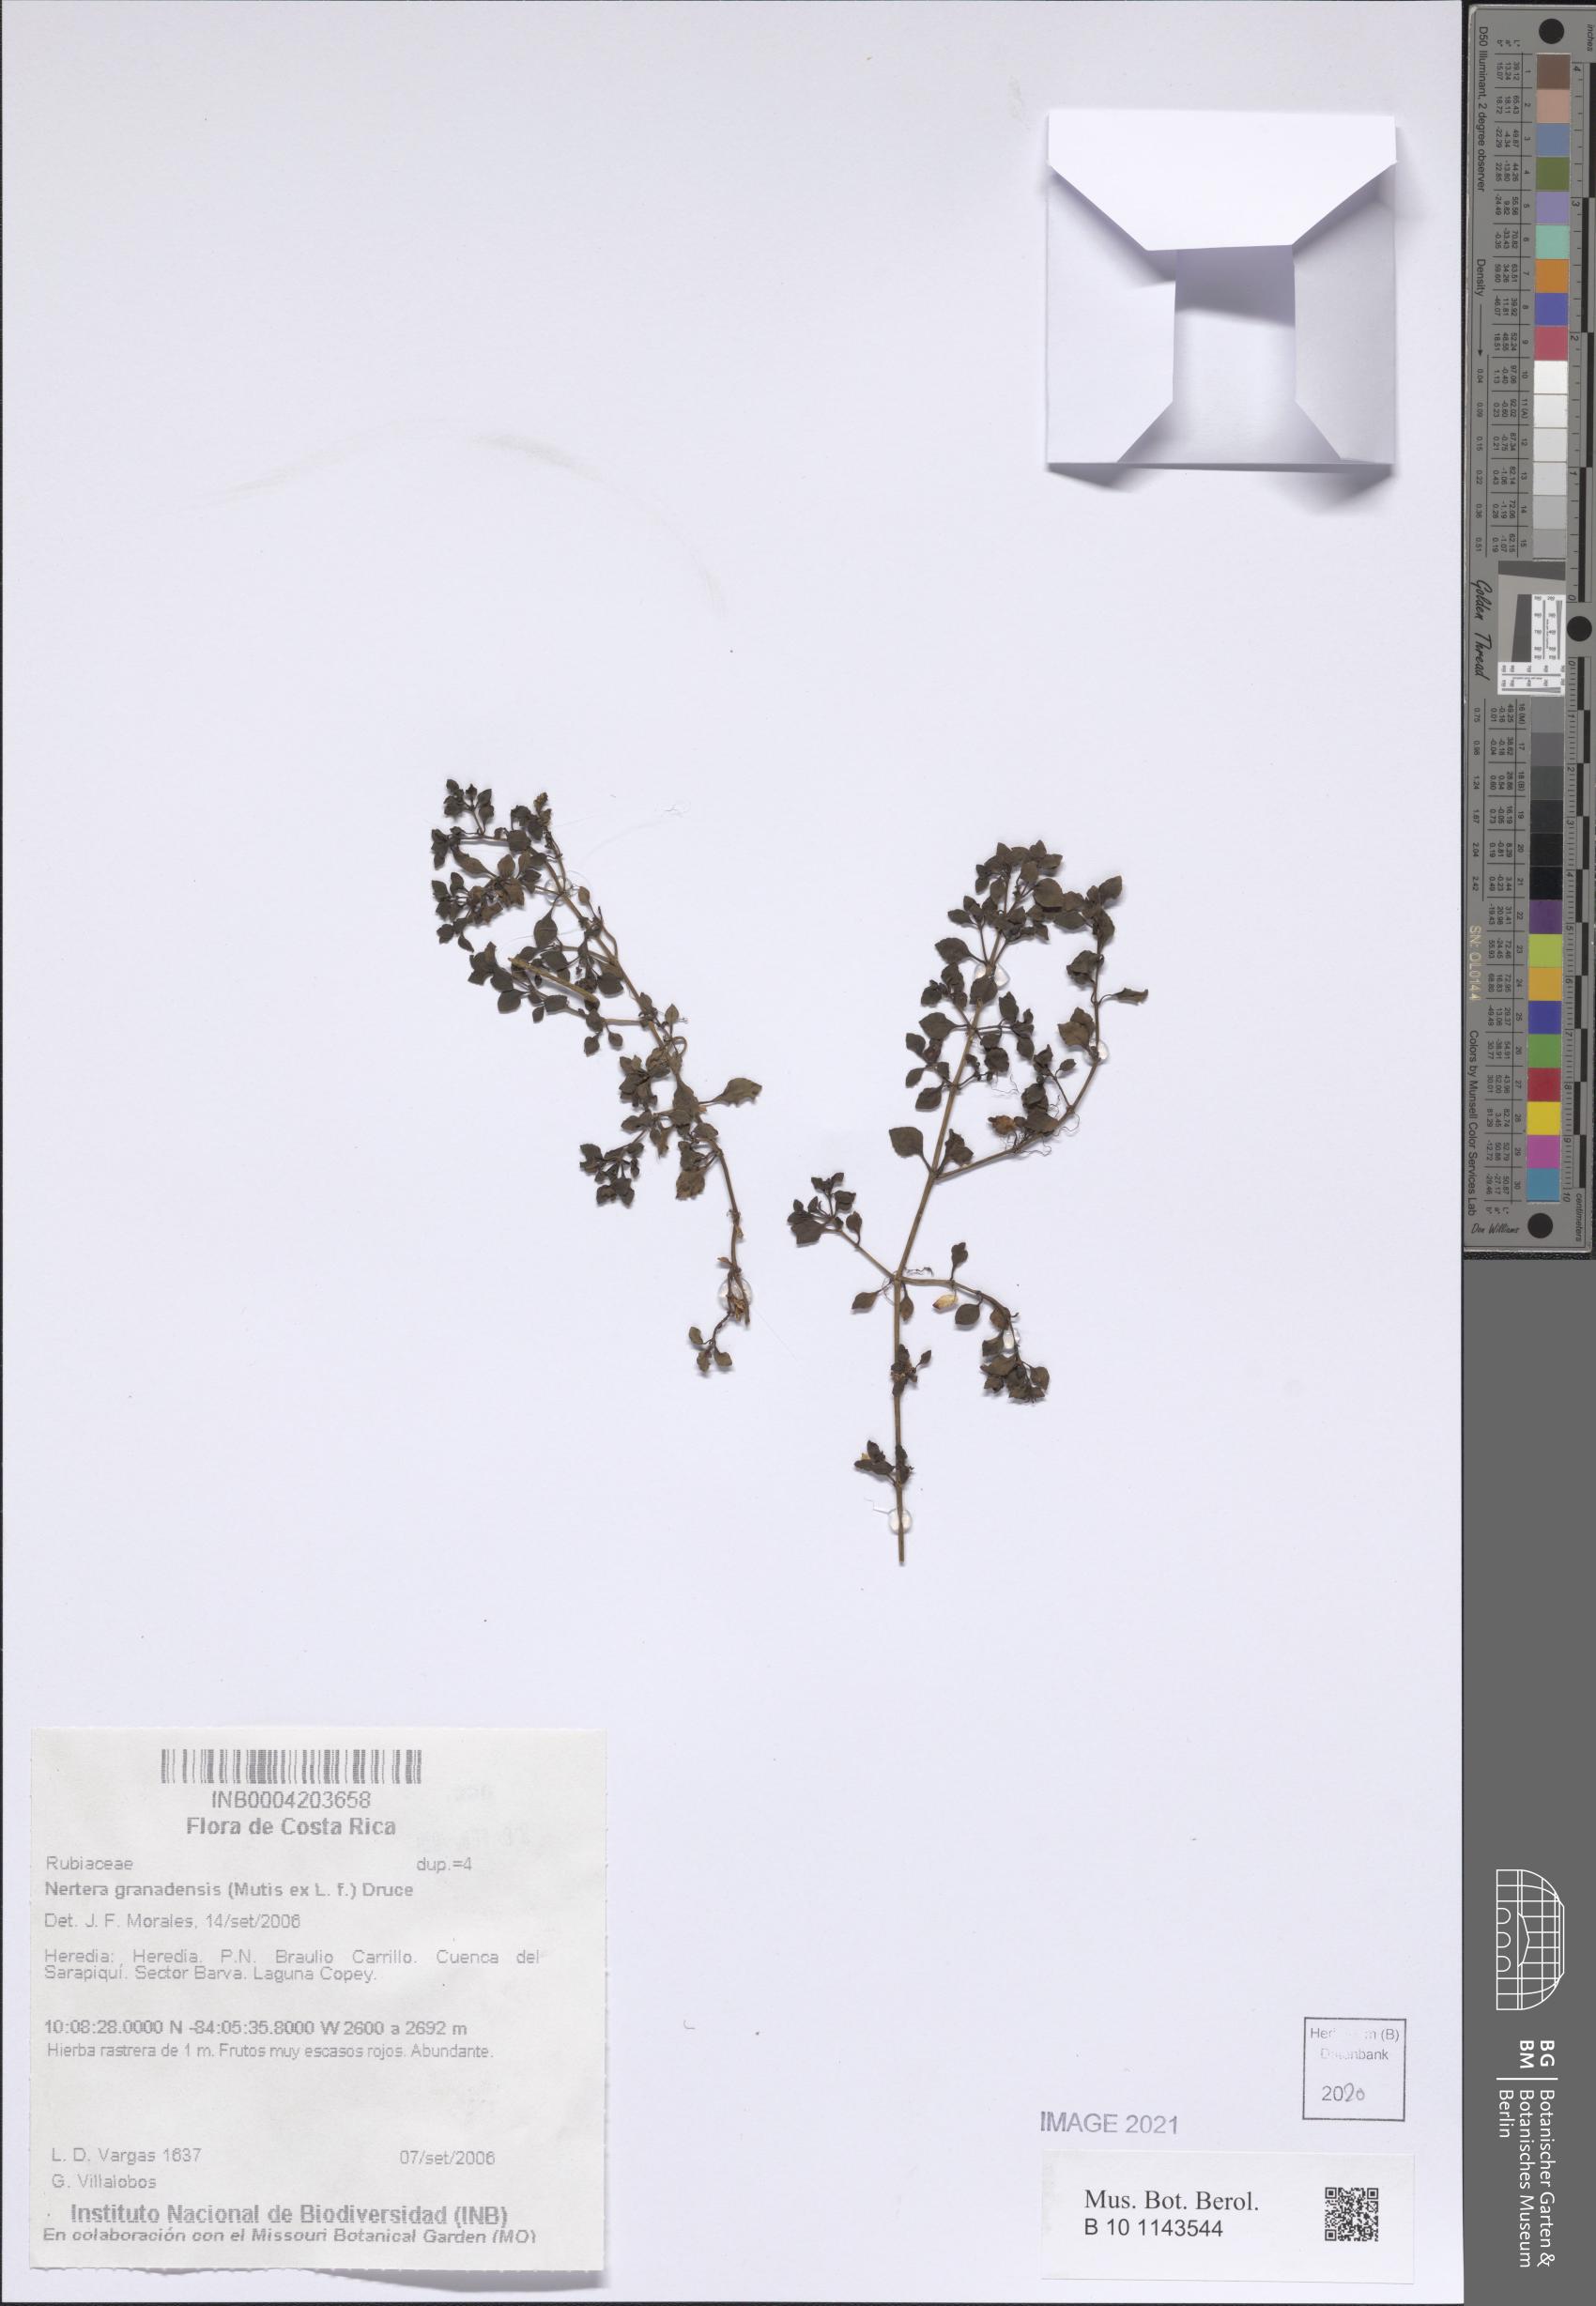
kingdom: Plantae
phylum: Tracheophyta
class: Magnoliopsida
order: Gentianales
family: Rubiaceae
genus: Nertera
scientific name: Nertera granadensis
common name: Beadplant
